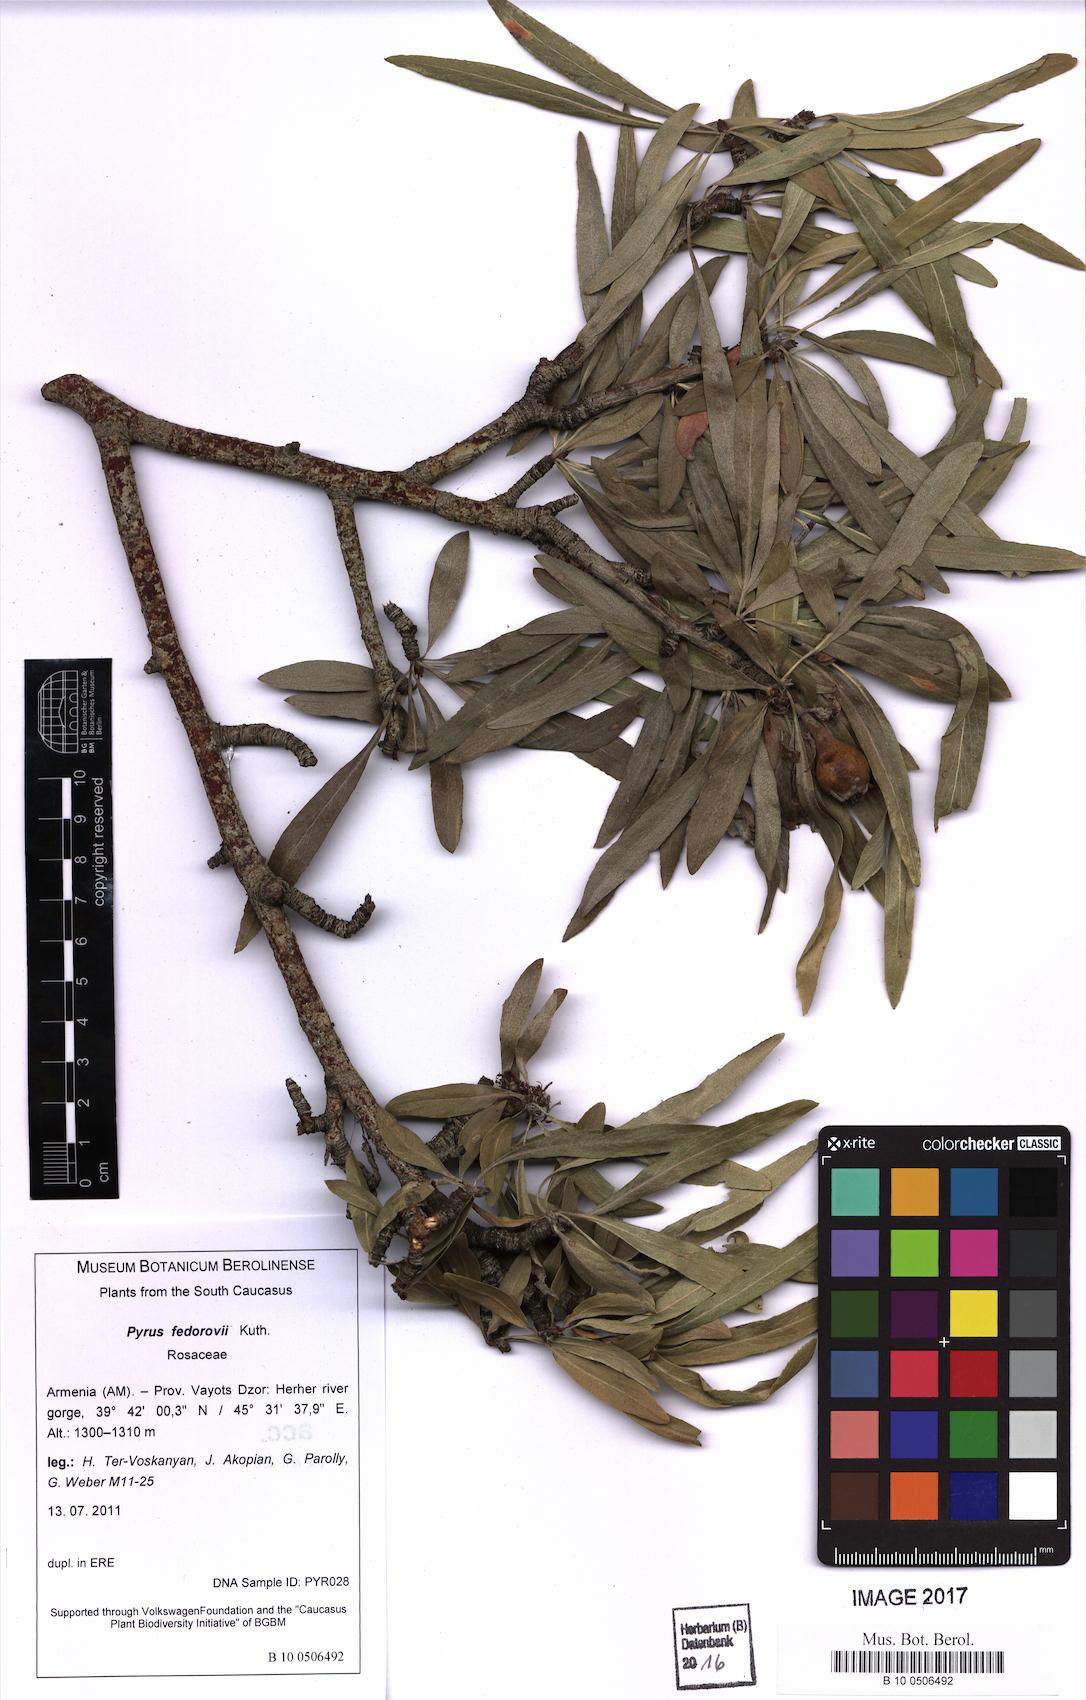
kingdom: Plantae
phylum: Tracheophyta
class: Magnoliopsida
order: Rosales
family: Rosaceae
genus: Pyrus
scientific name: Pyrus fedorovii
